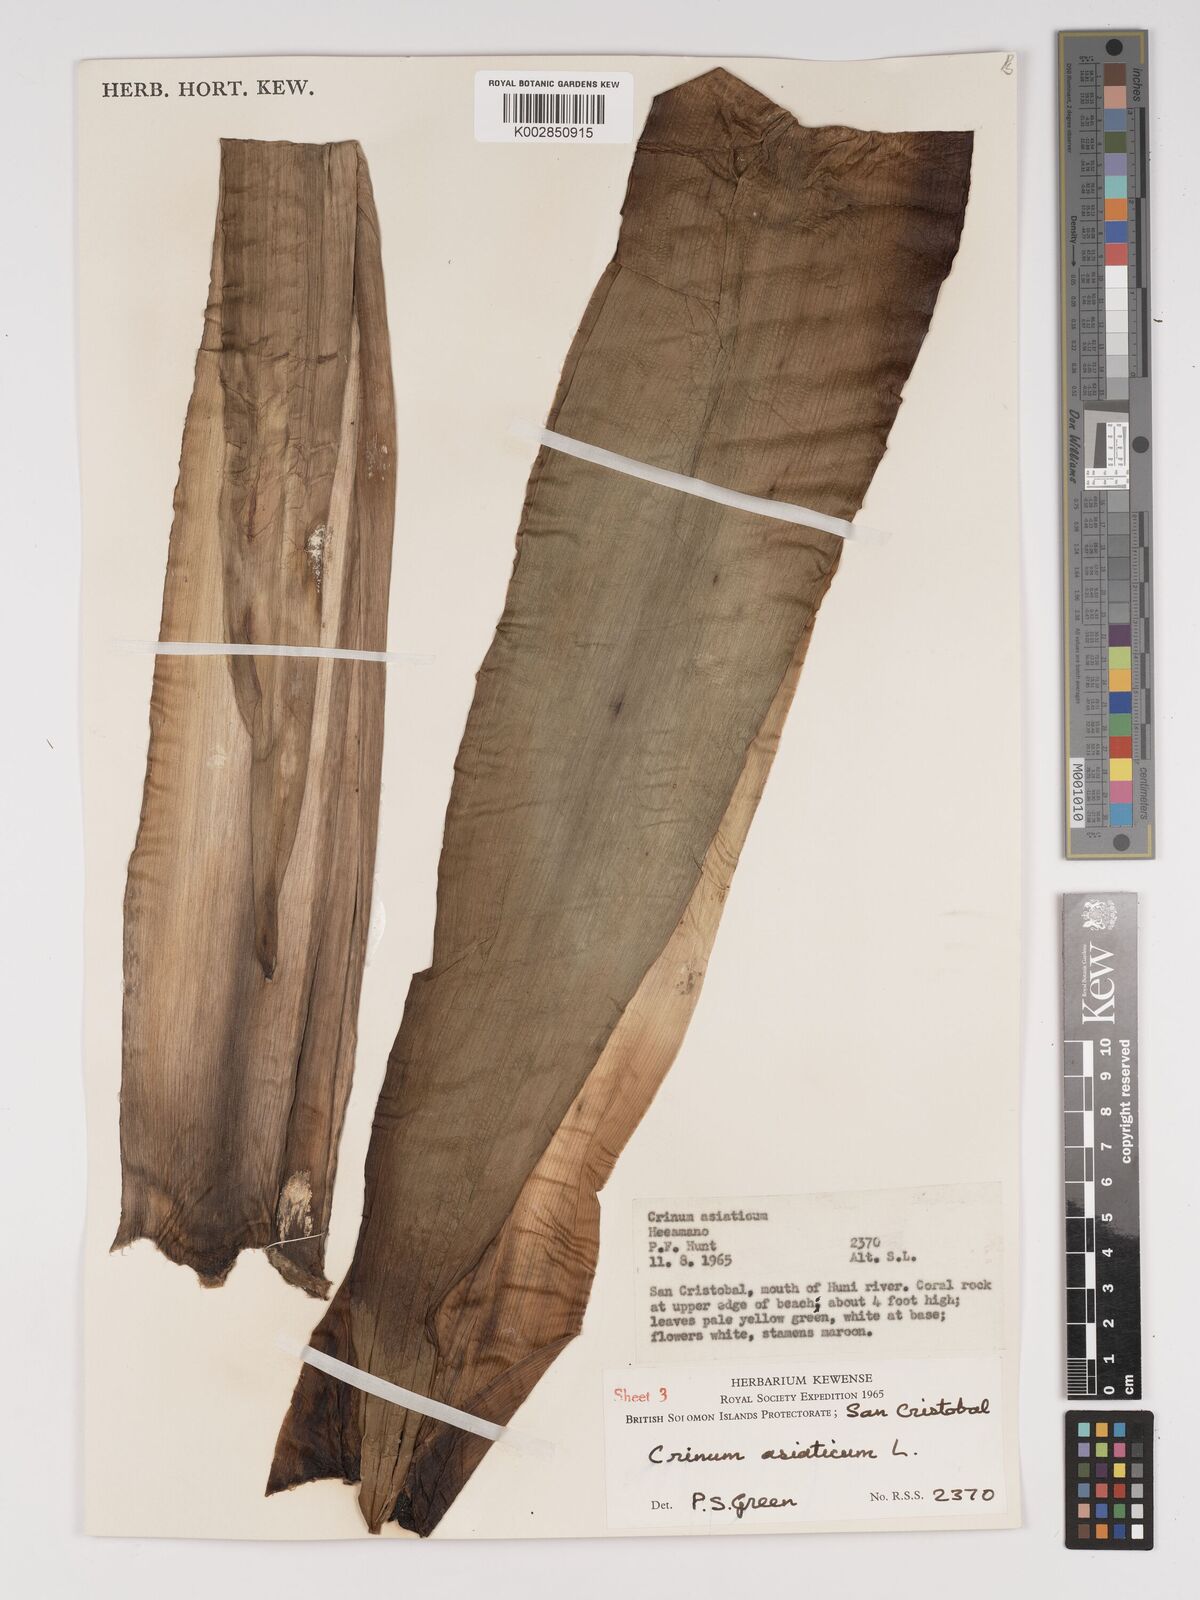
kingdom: Plantae
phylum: Tracheophyta
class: Liliopsida
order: Asparagales
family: Amaryllidaceae
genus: Crinum
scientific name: Crinum asiaticum
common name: Poisonbulb
